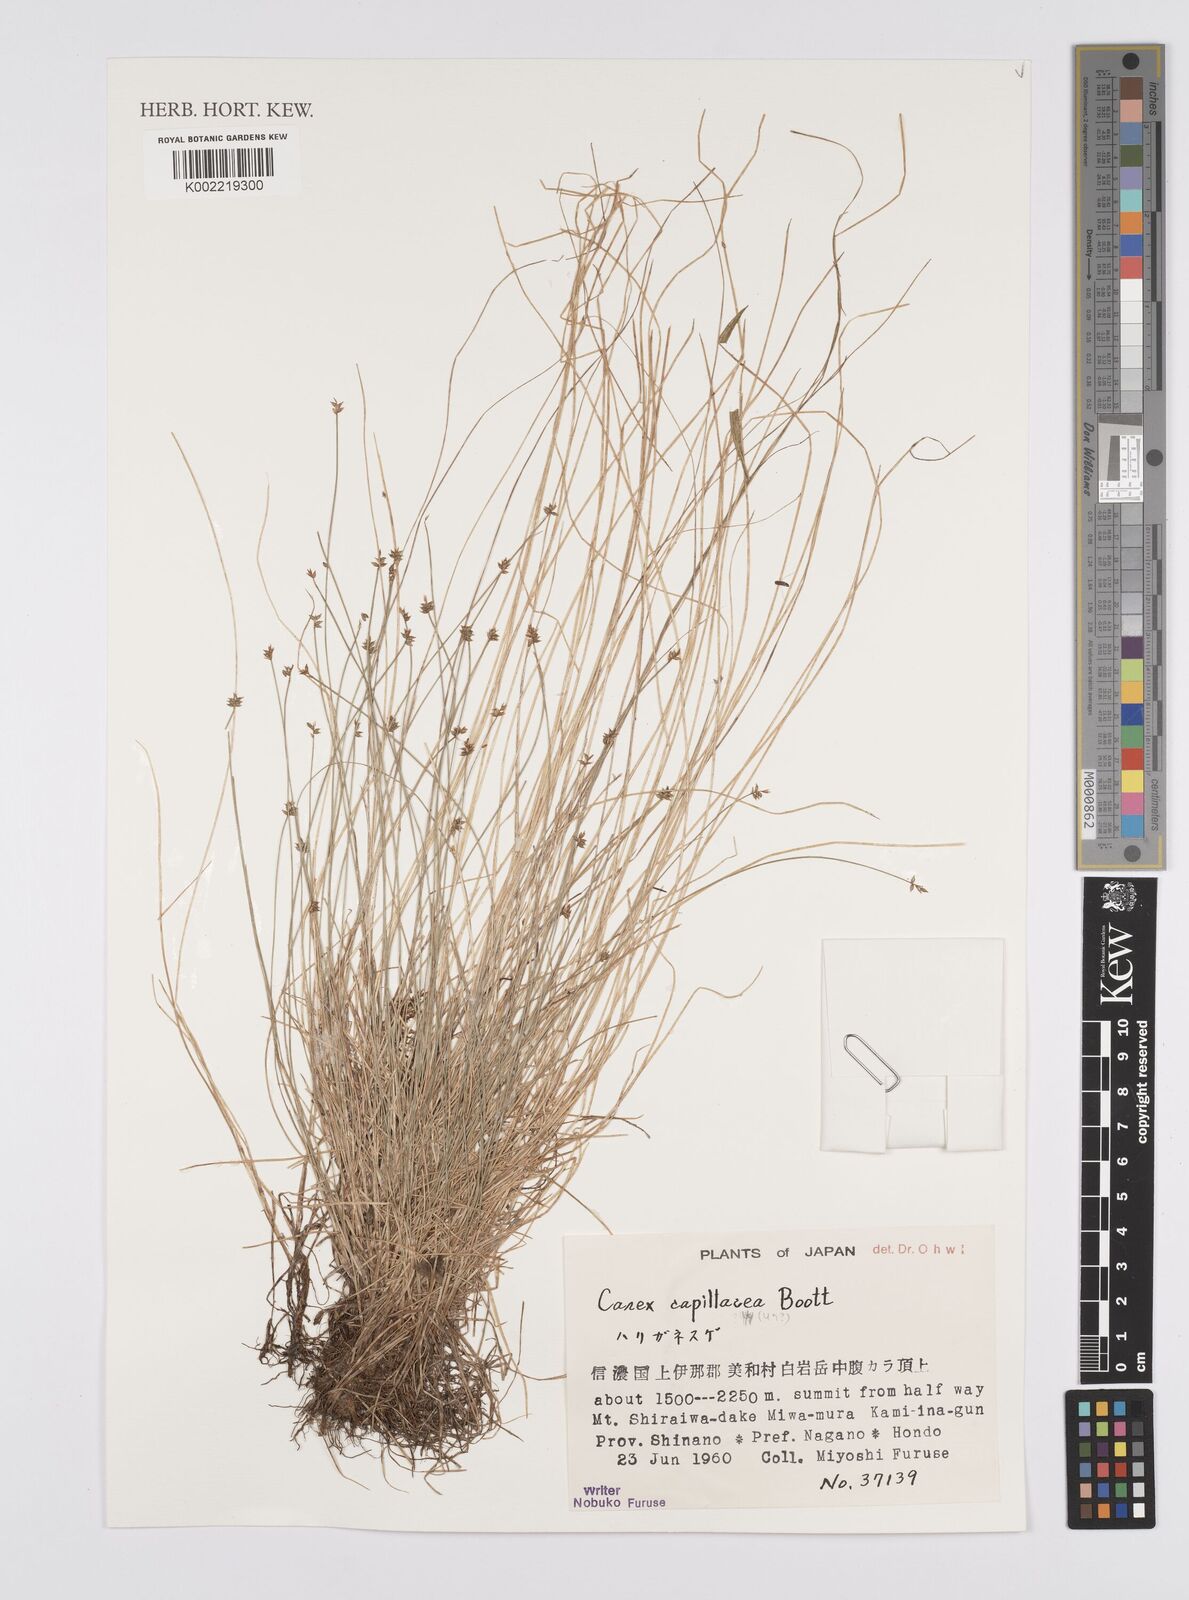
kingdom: Plantae
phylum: Tracheophyta
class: Liliopsida
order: Poales
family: Cyperaceae
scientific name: Cyperaceae
